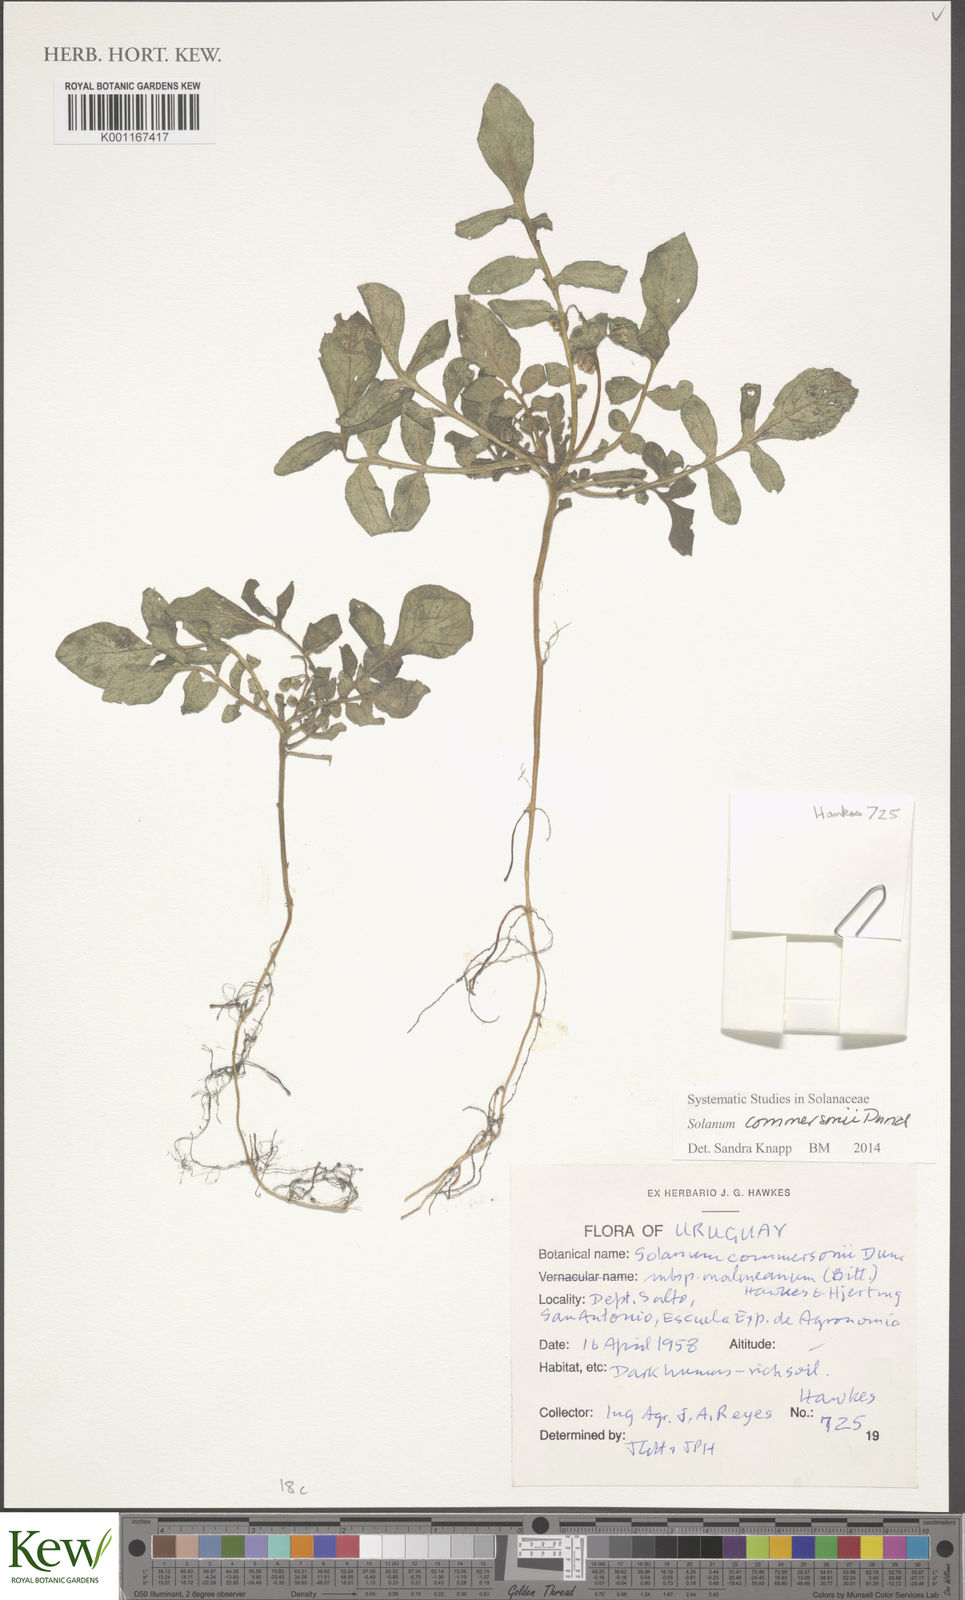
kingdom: Plantae
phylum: Tracheophyta
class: Magnoliopsida
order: Solanales
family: Solanaceae
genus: Solanum
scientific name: Solanum commersonii
